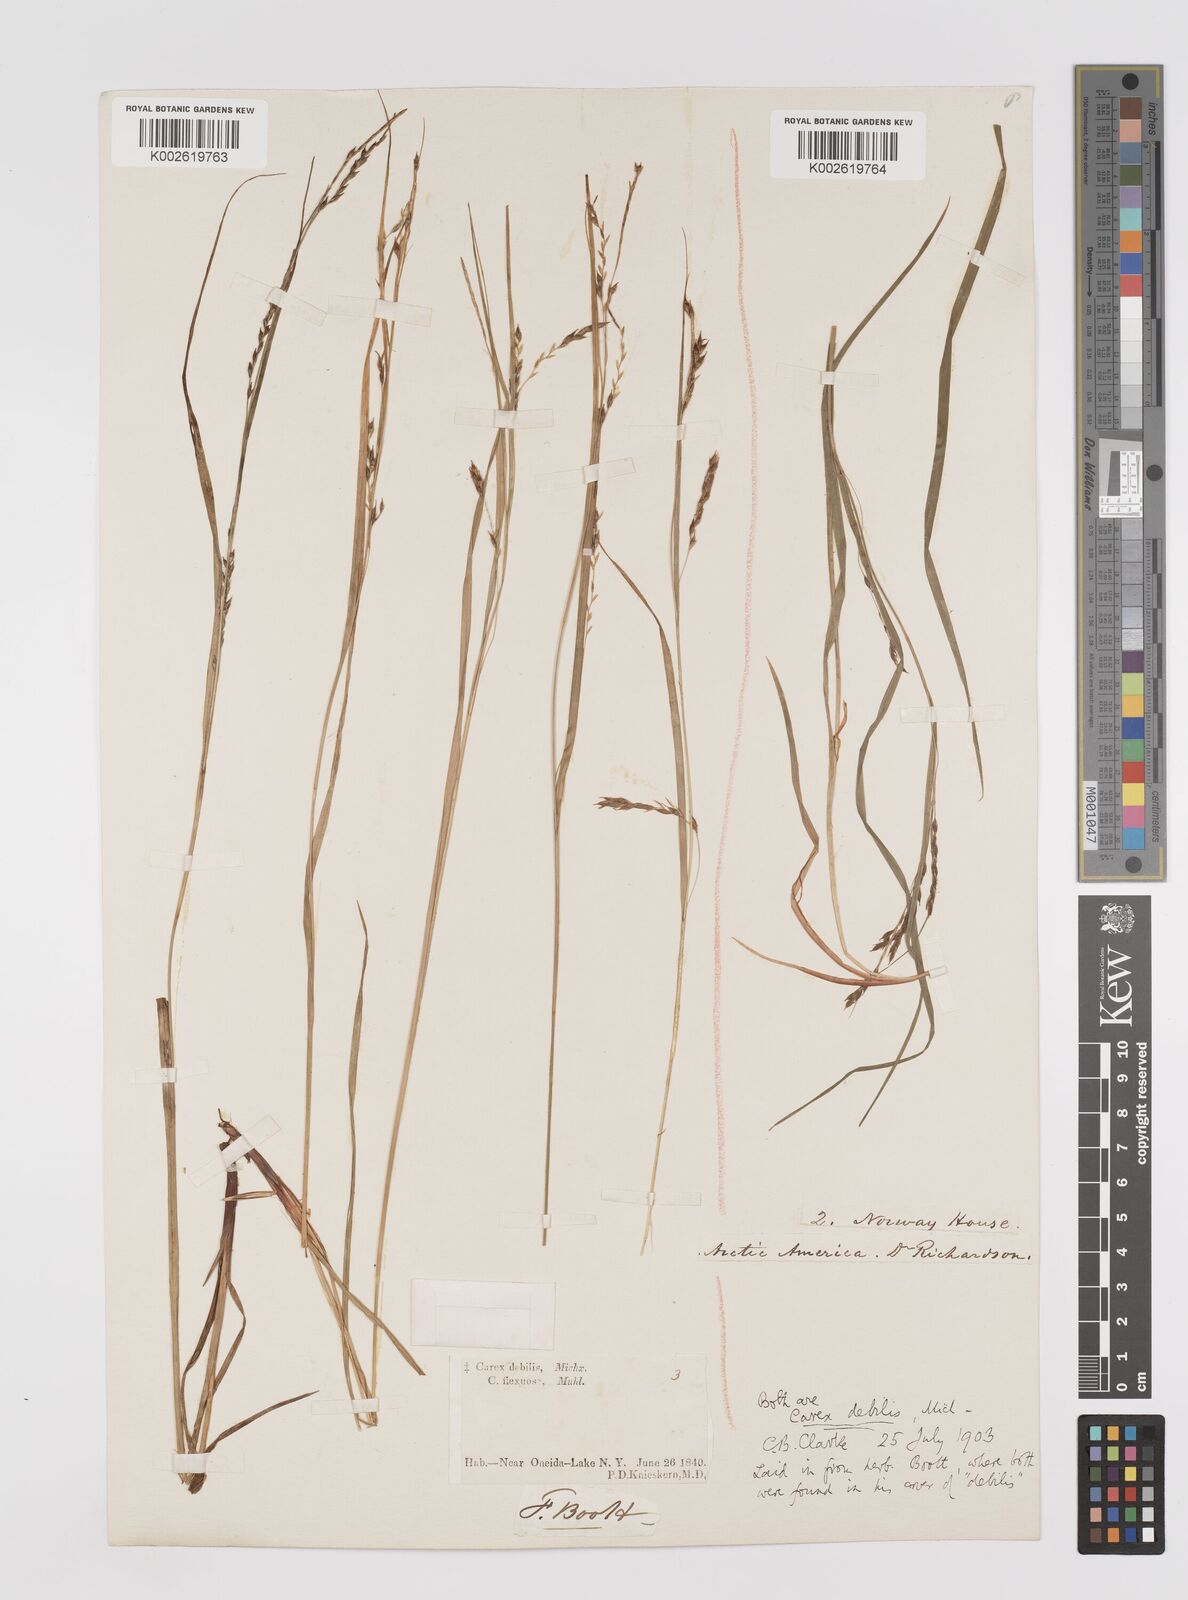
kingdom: Plantae
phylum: Tracheophyta
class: Liliopsida
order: Poales
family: Cyperaceae
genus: Carex
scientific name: Carex debilis
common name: White-edge sedge
